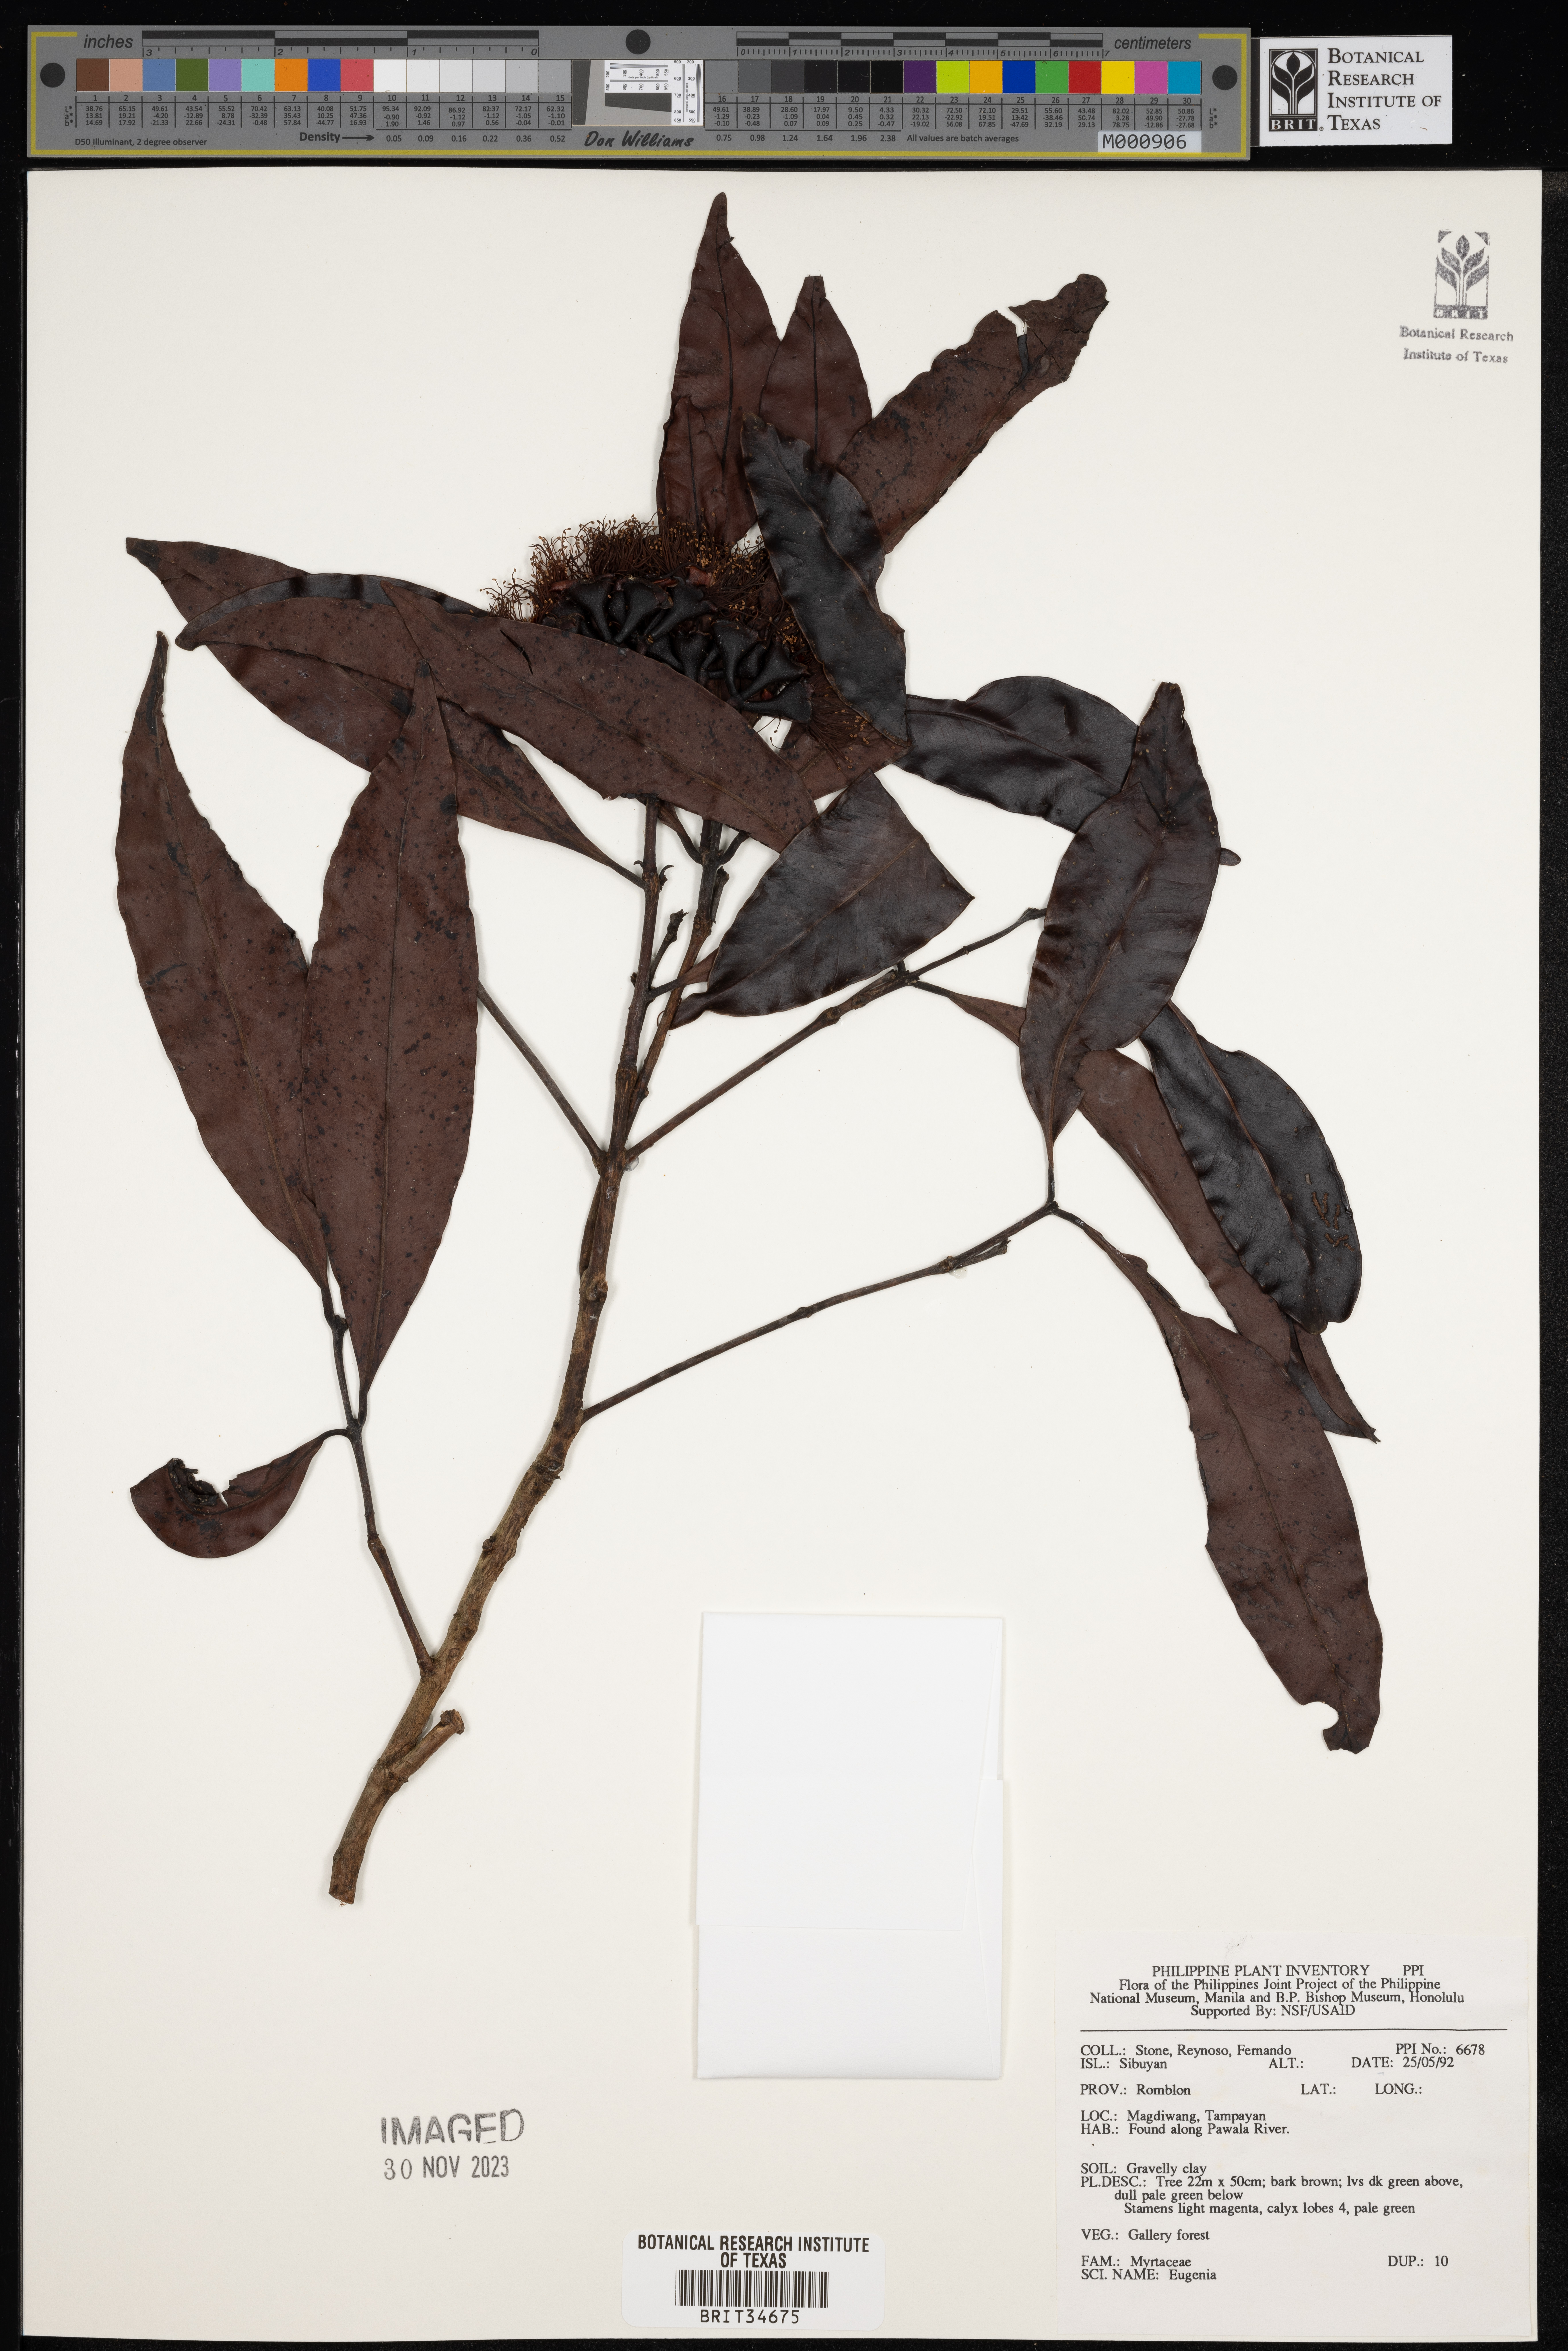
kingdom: Plantae
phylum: Tracheophyta
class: Magnoliopsida
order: Myrtales
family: Myrtaceae
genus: Eugenia
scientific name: Eugenia
